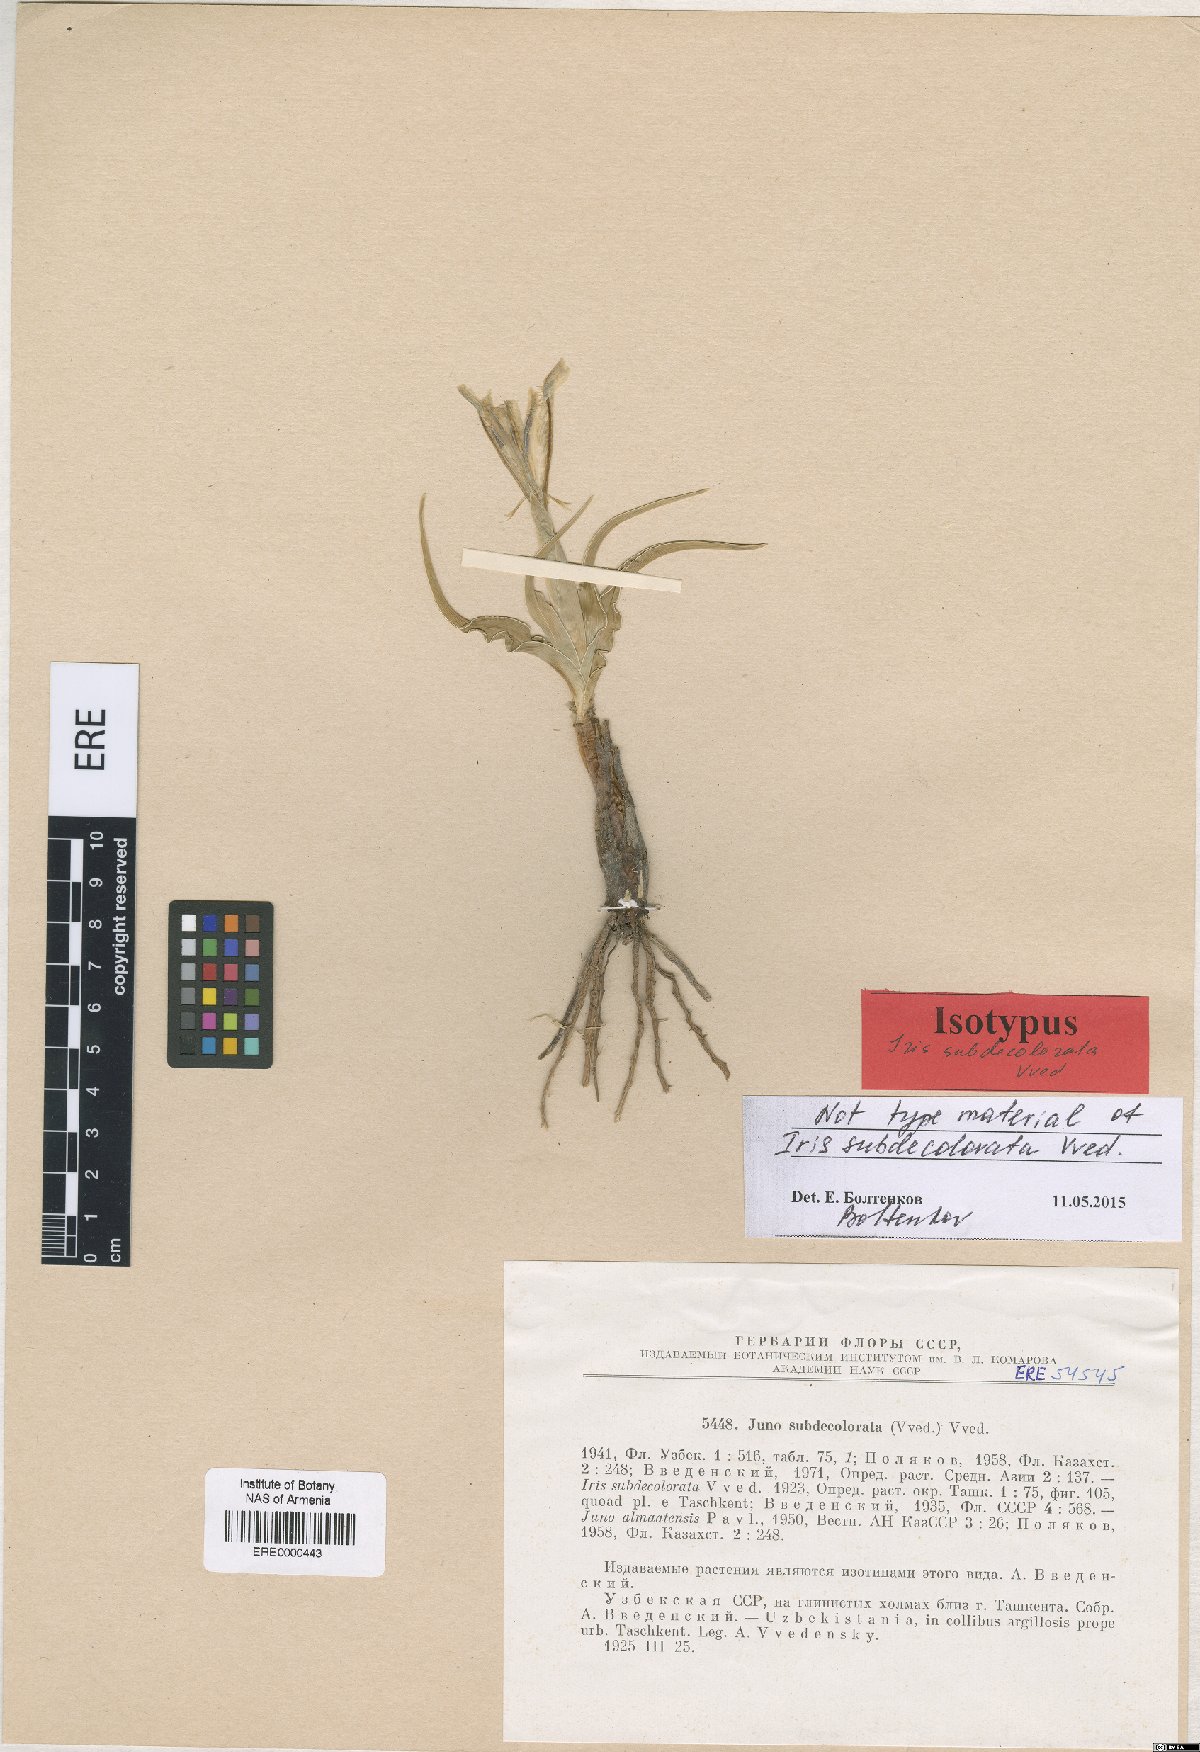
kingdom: Plantae
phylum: Tracheophyta
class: Liliopsida
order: Asparagales
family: Iridaceae
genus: Iris
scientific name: Iris subdecolorata
